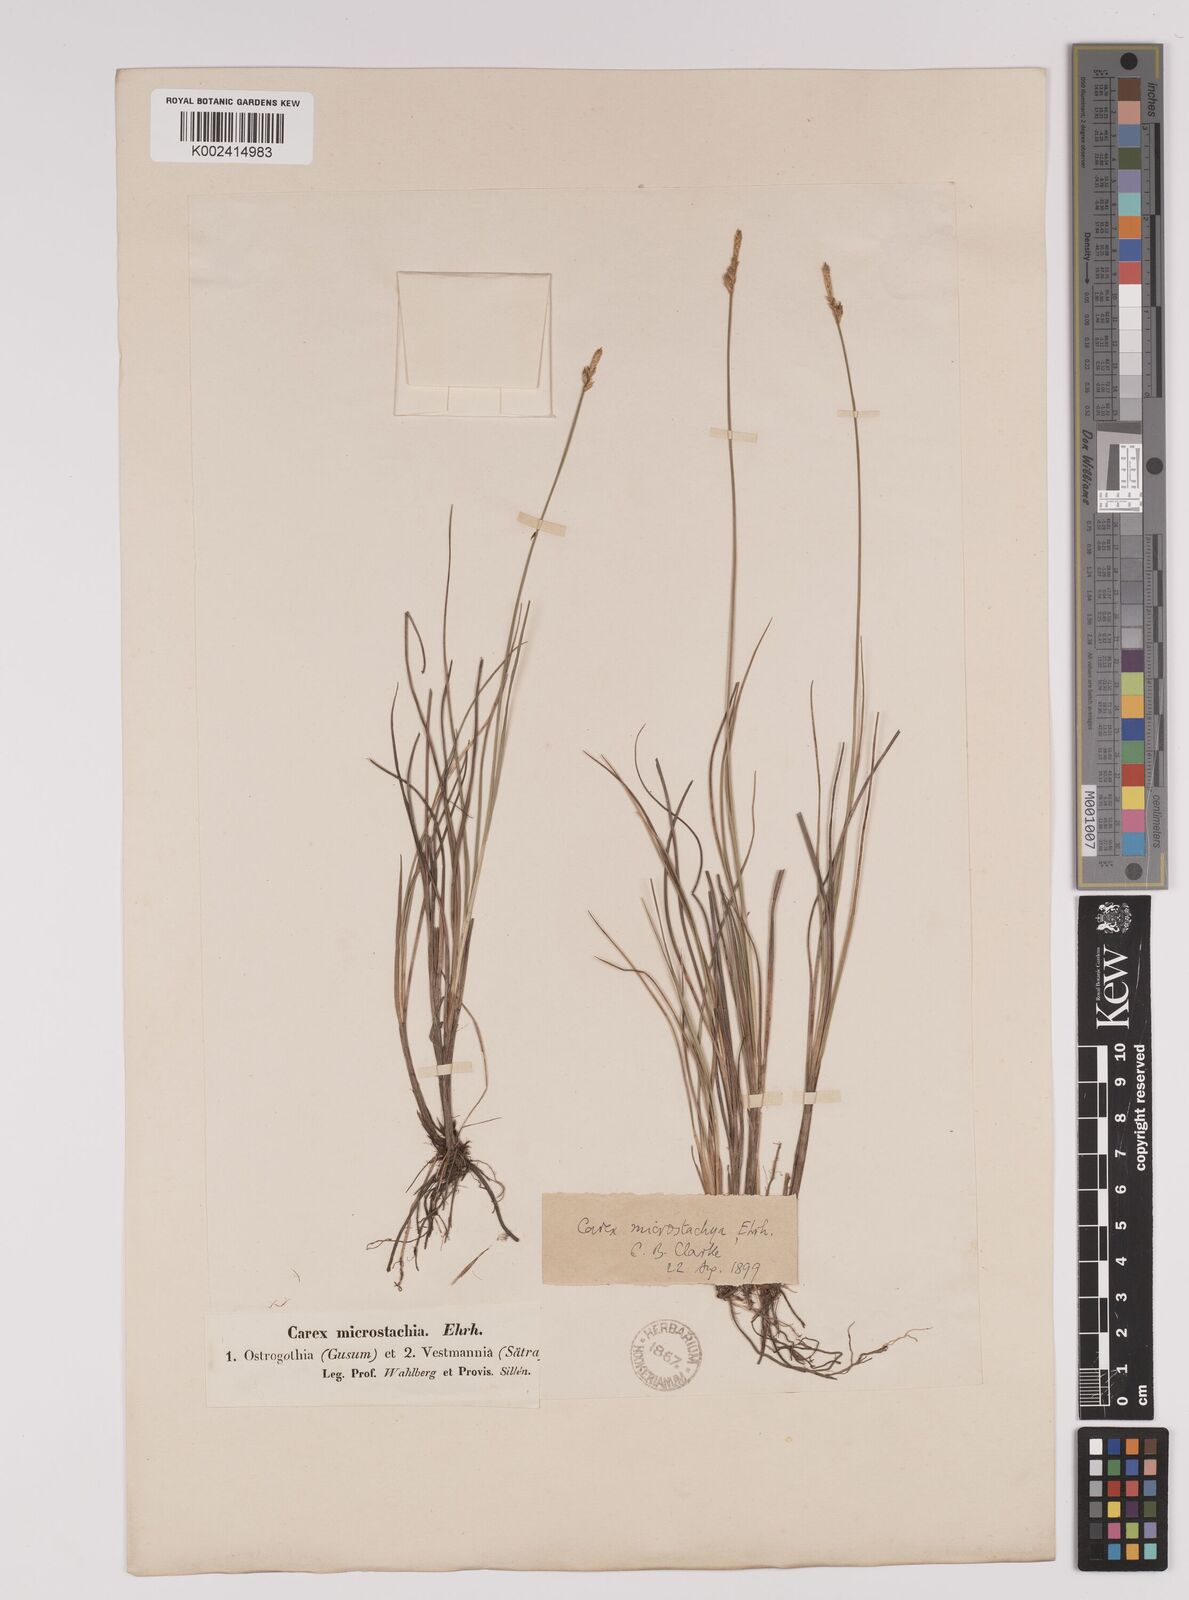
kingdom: Plantae
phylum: Tracheophyta
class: Liliopsida
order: Poales
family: Cyperaceae
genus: Carex
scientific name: Carex dioica
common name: Dioecious sedge
